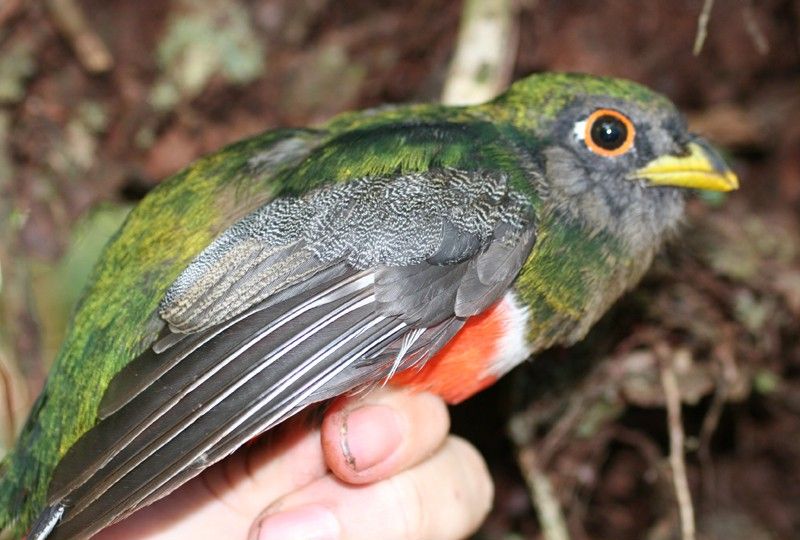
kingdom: Animalia
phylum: Chordata
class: Aves
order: Trogoniformes
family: Trogonidae
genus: Trogon
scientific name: Trogon collaris
